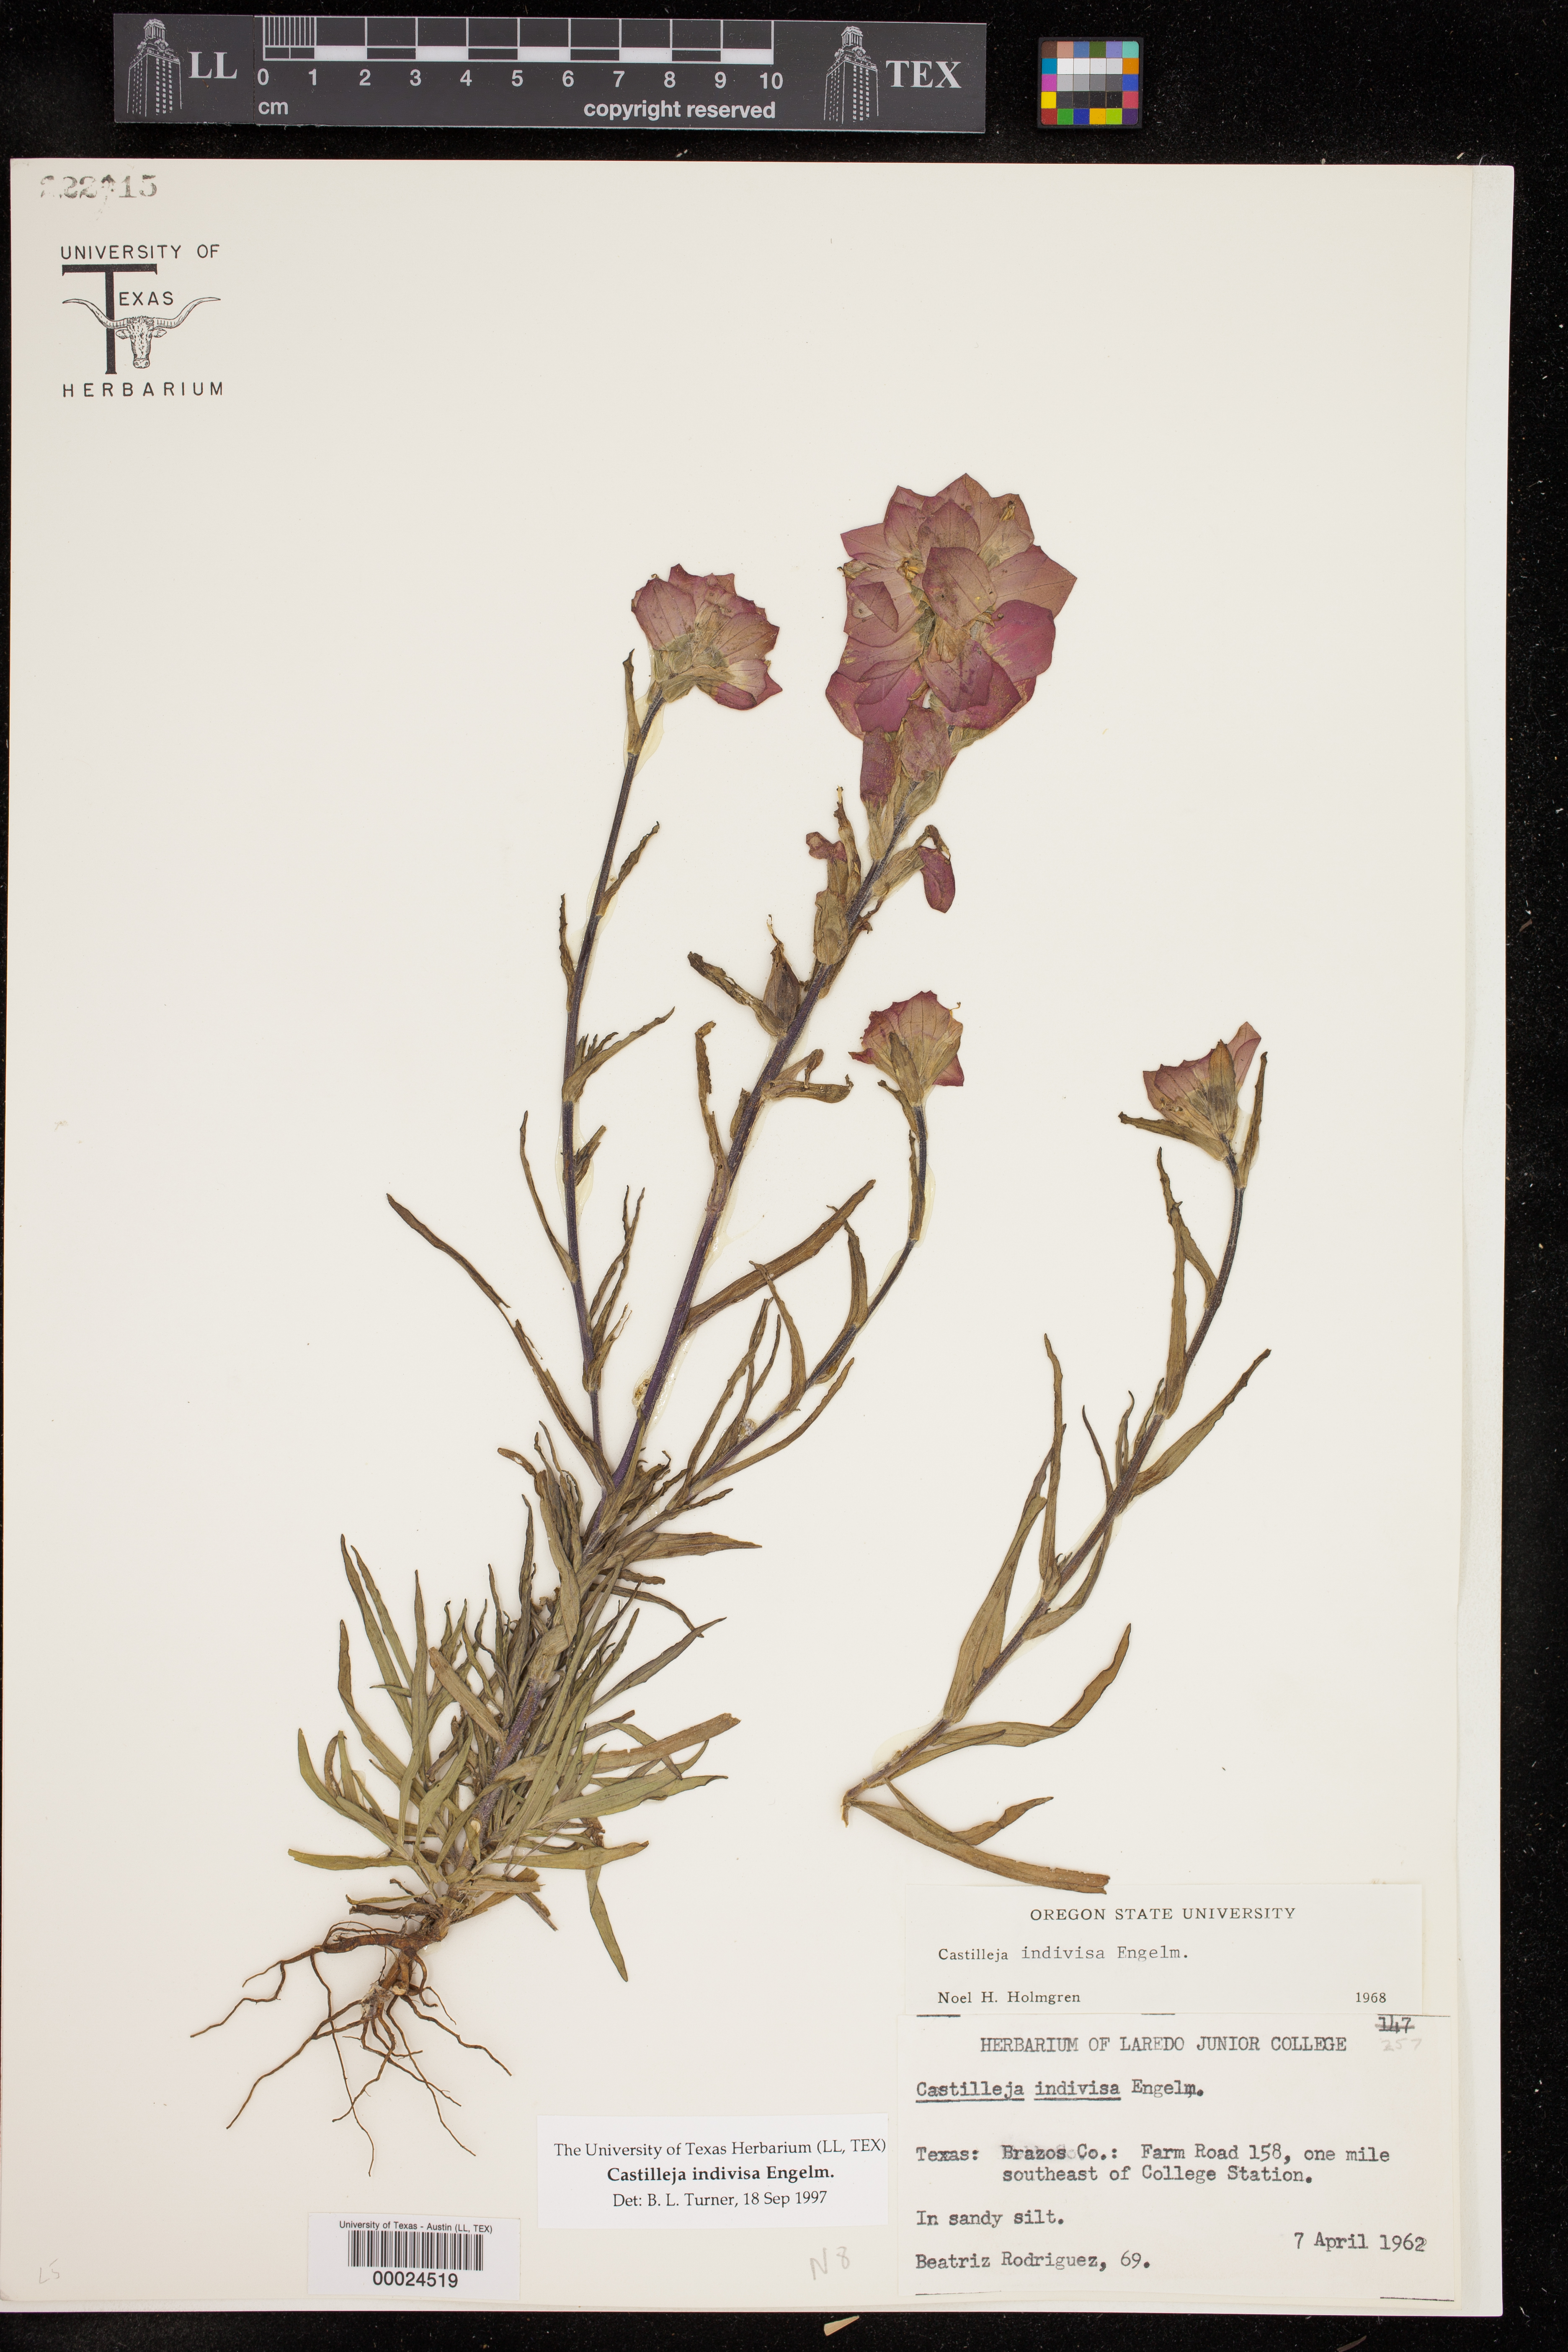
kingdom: Plantae
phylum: Tracheophyta
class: Magnoliopsida
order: Lamiales
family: Orobanchaceae
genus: Castilleja
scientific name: Castilleja indivisa
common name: Texas paintbrush
